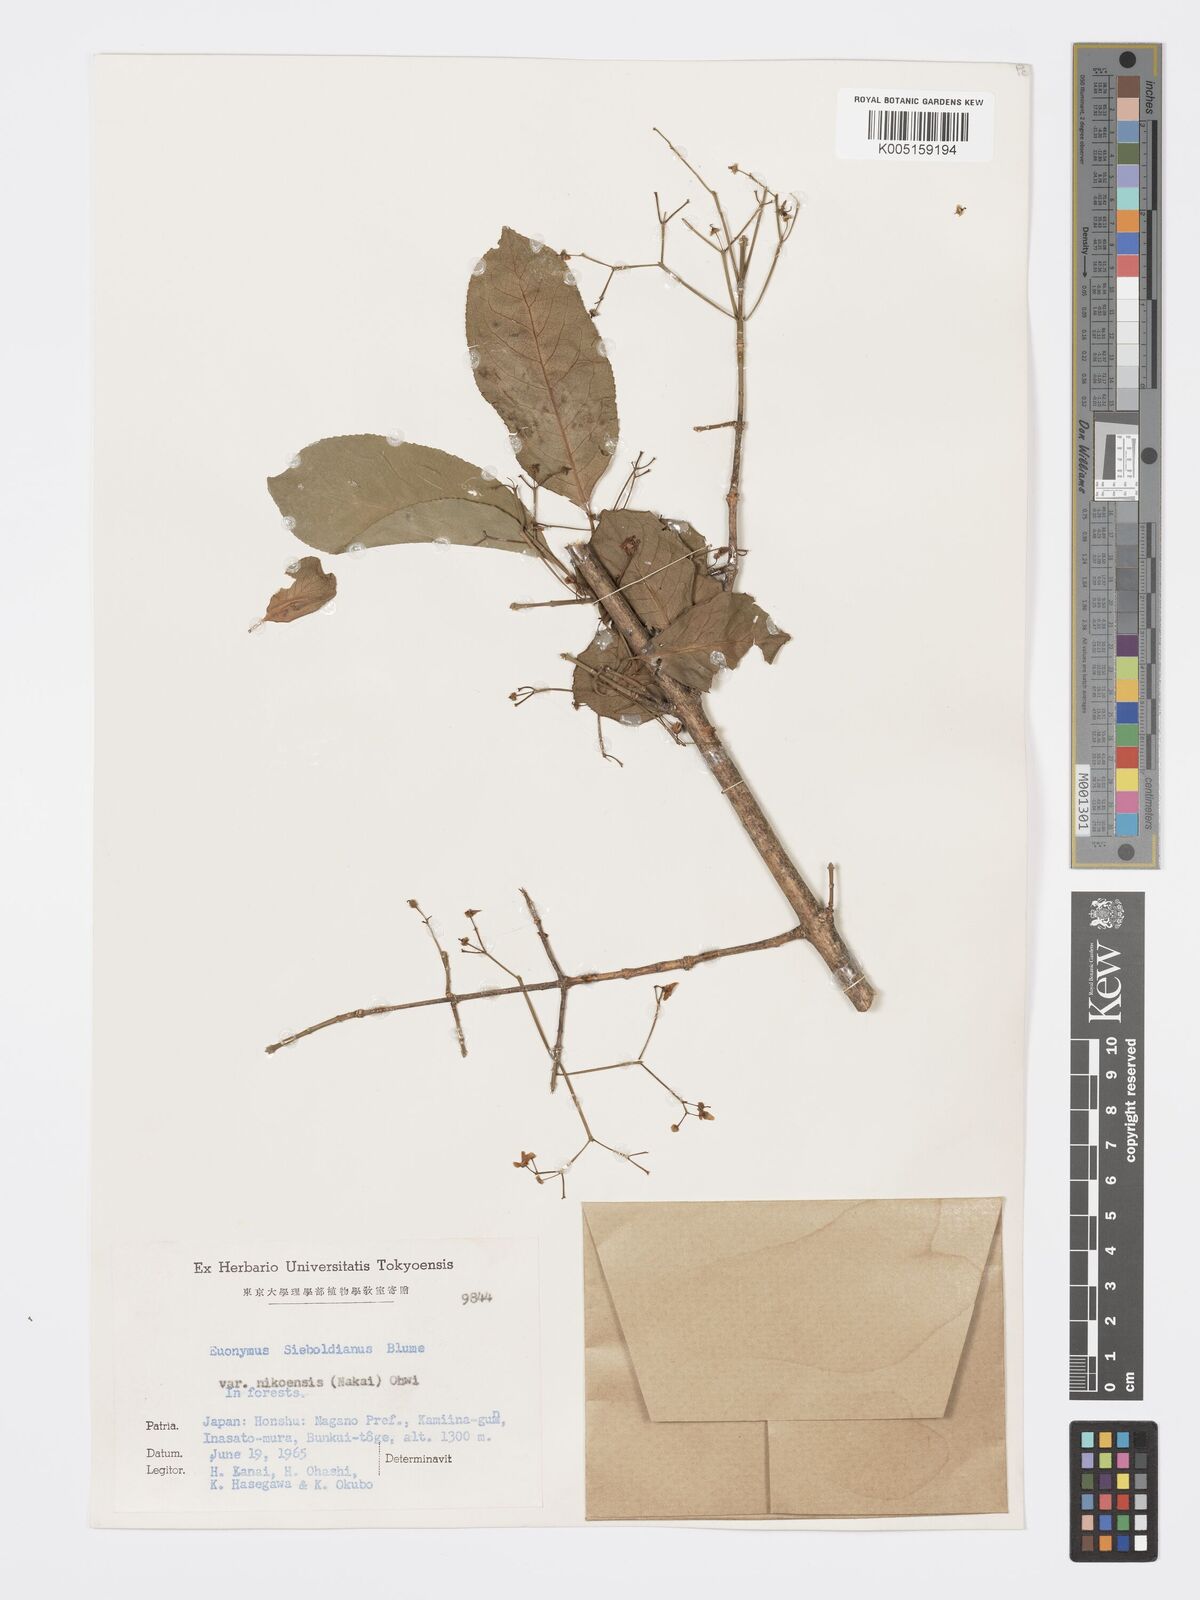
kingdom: Plantae
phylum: Tracheophyta
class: Magnoliopsida
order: Celastrales
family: Celastraceae
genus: Euonymus
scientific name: Euonymus hamiltonianus
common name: Hamilton's spindletree
